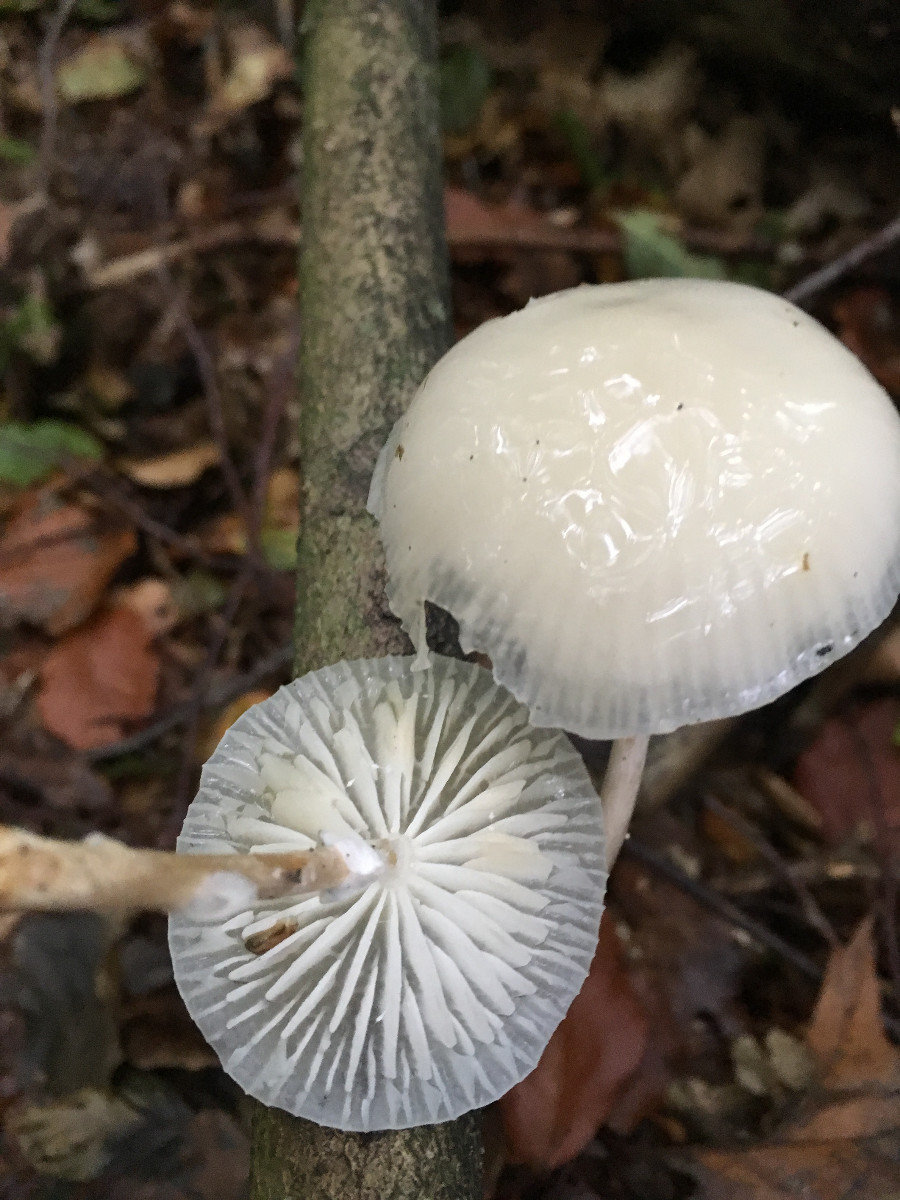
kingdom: Fungi
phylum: Basidiomycota
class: Agaricomycetes
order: Agaricales
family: Physalacriaceae
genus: Mucidula
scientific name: Mucidula mucida
